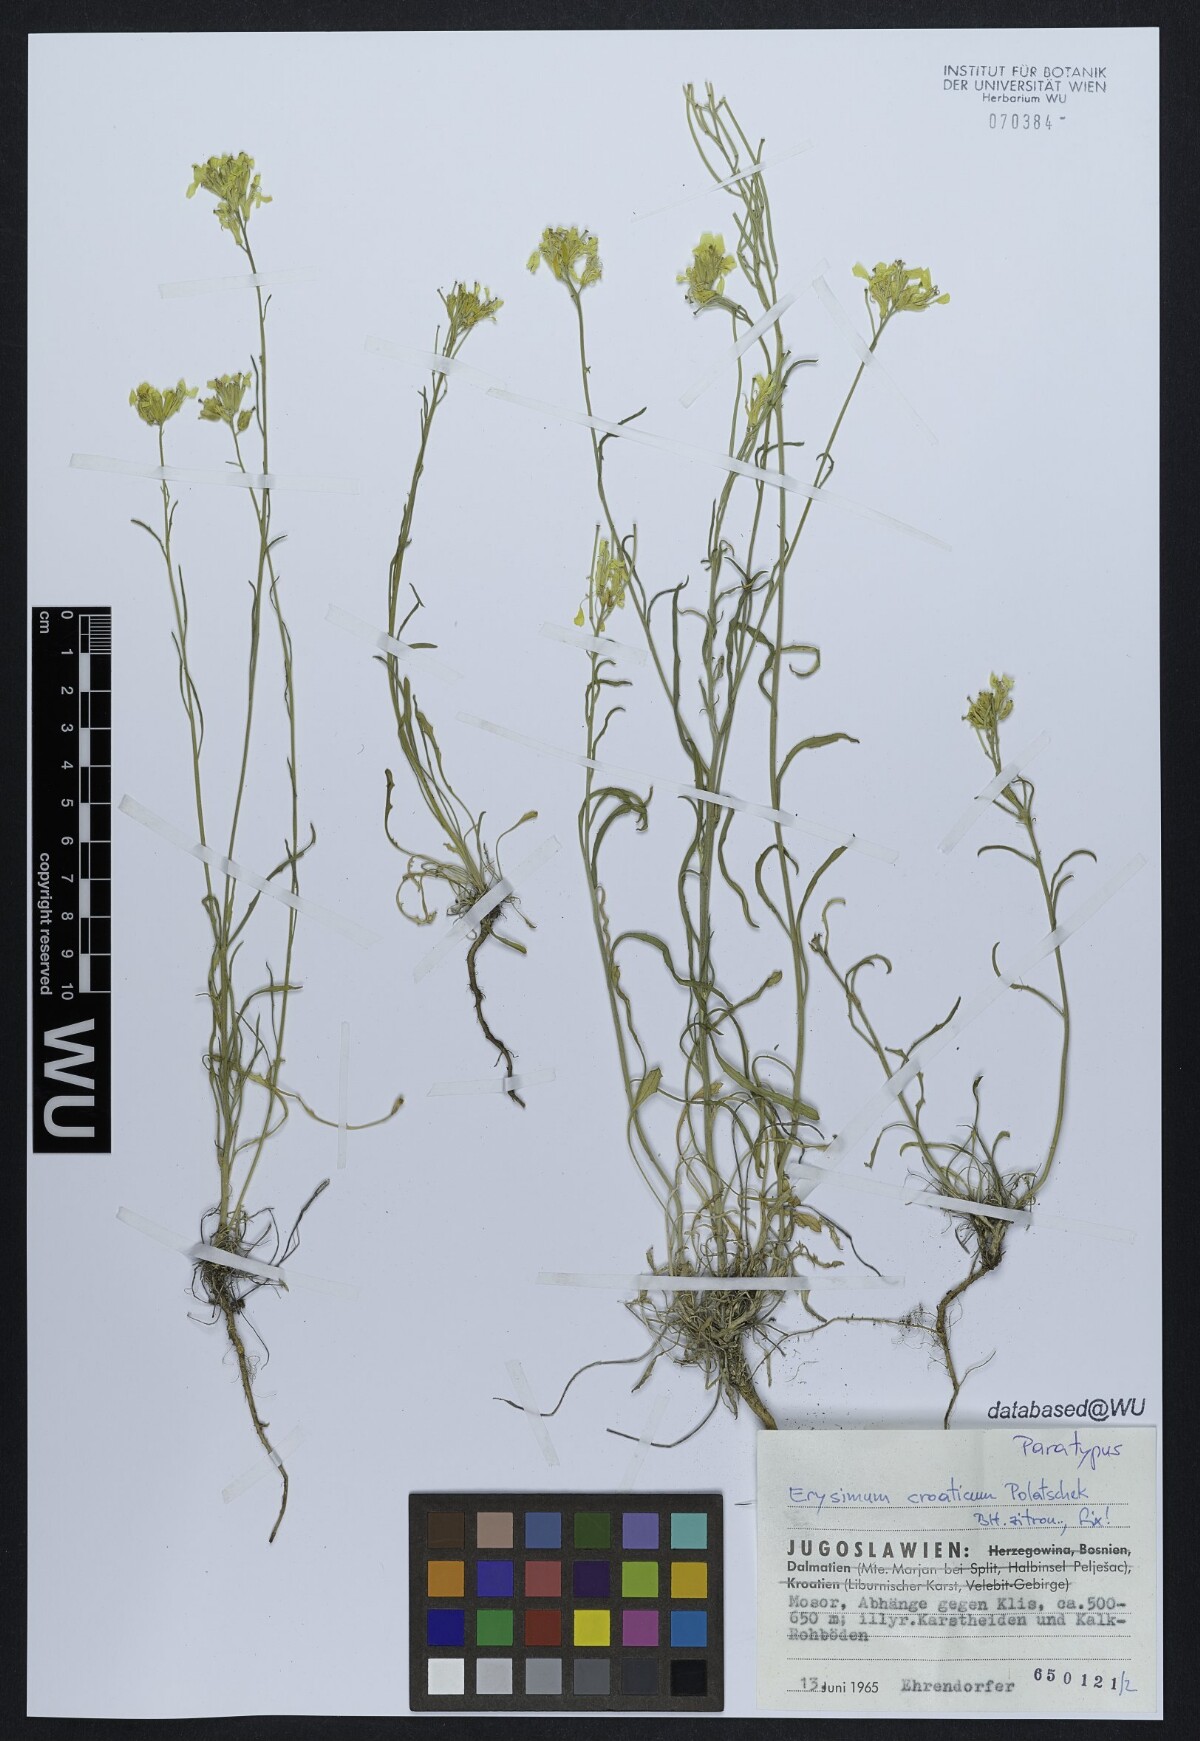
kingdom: Plantae
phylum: Tracheophyta
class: Magnoliopsida
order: Brassicales
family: Brassicaceae
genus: Erysimum
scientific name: Erysimum croaticum
